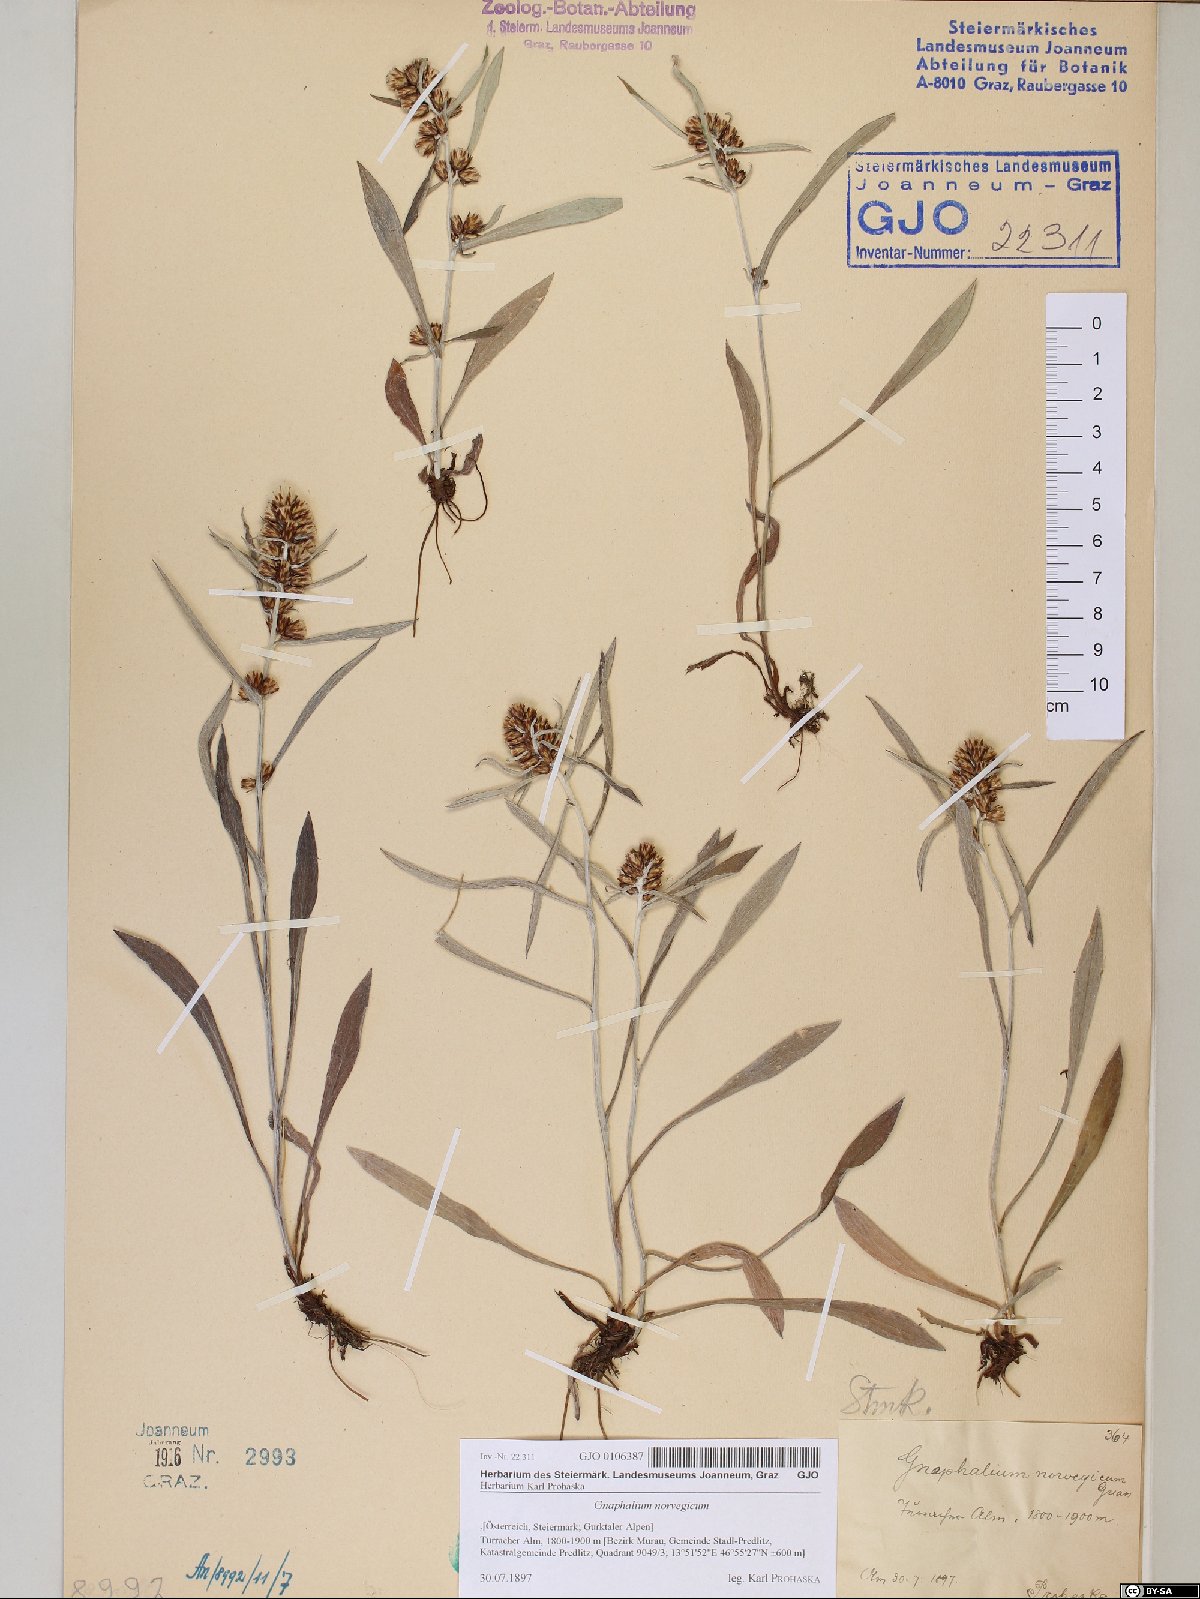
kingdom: Plantae
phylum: Tracheophyta
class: Magnoliopsida
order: Asterales
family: Asteraceae
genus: Omalotheca
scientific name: Omalotheca norvegica
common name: Norwegian arctic-cudweed
